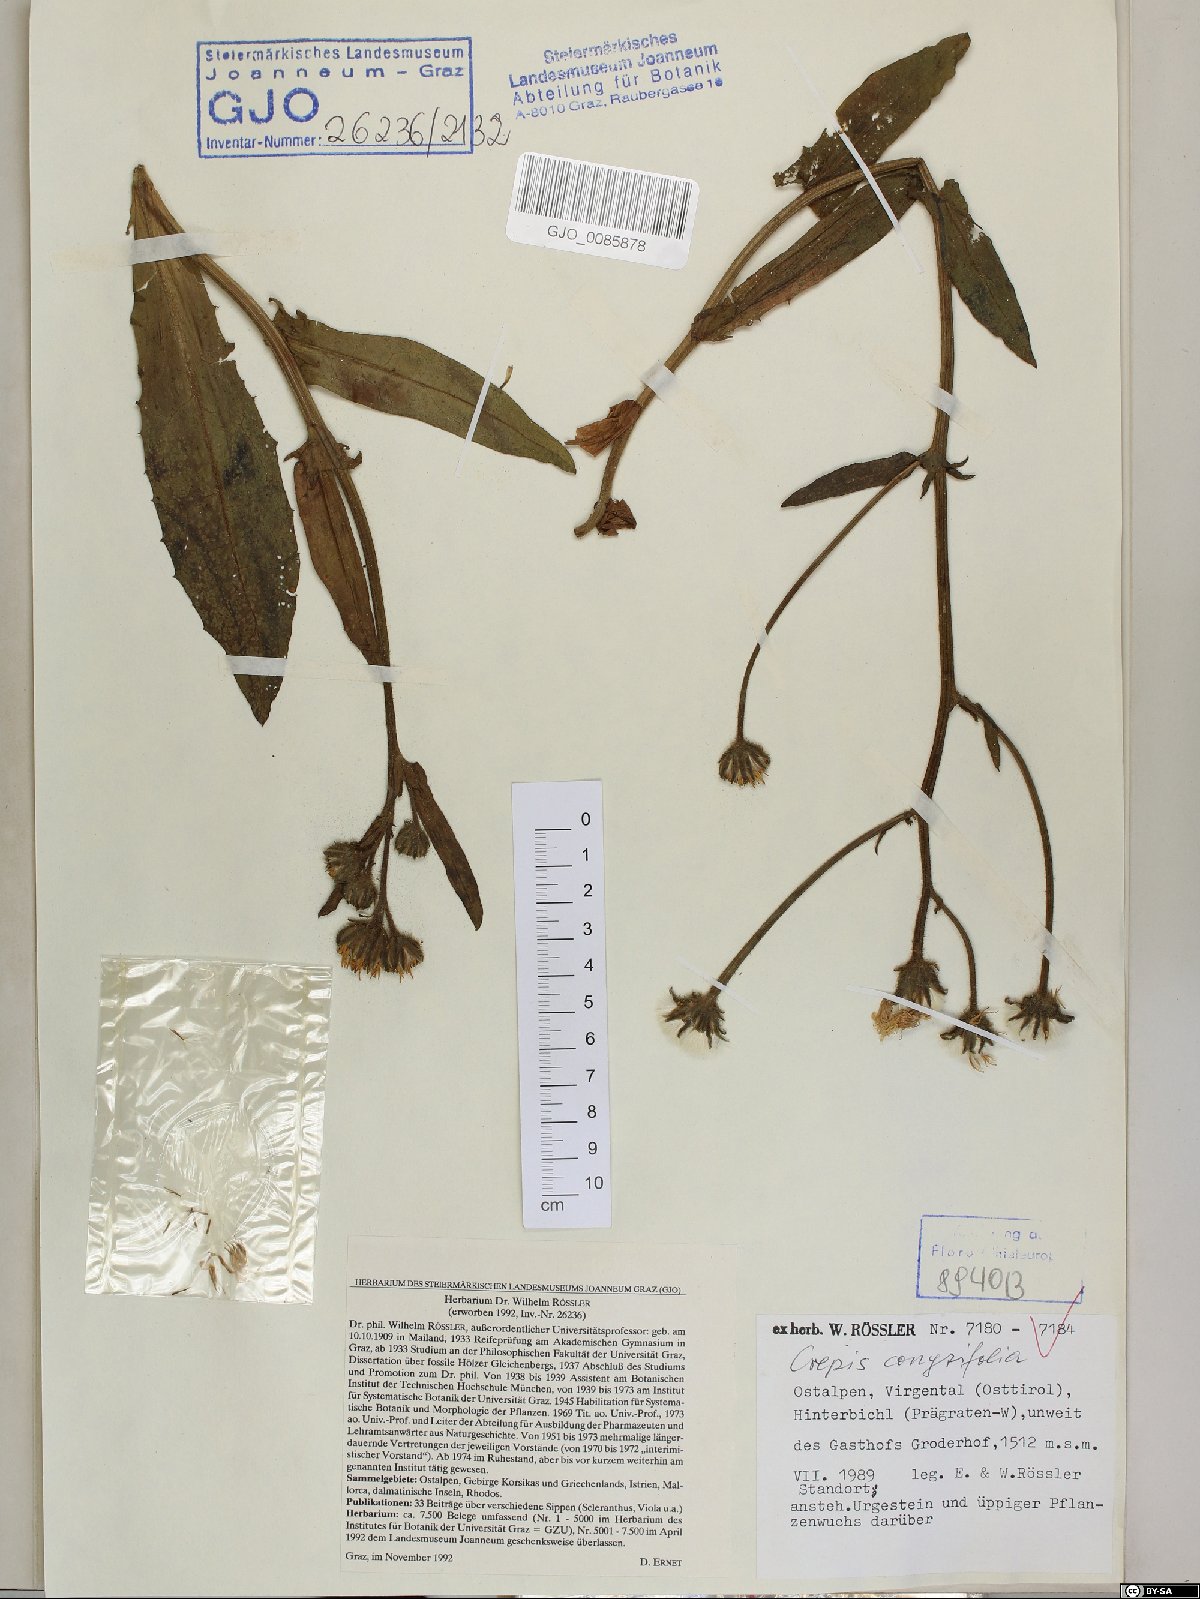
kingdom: Plantae
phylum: Tracheophyta
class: Magnoliopsida
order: Asterales
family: Asteraceae
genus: Crepis
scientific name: Crepis blattarioides
